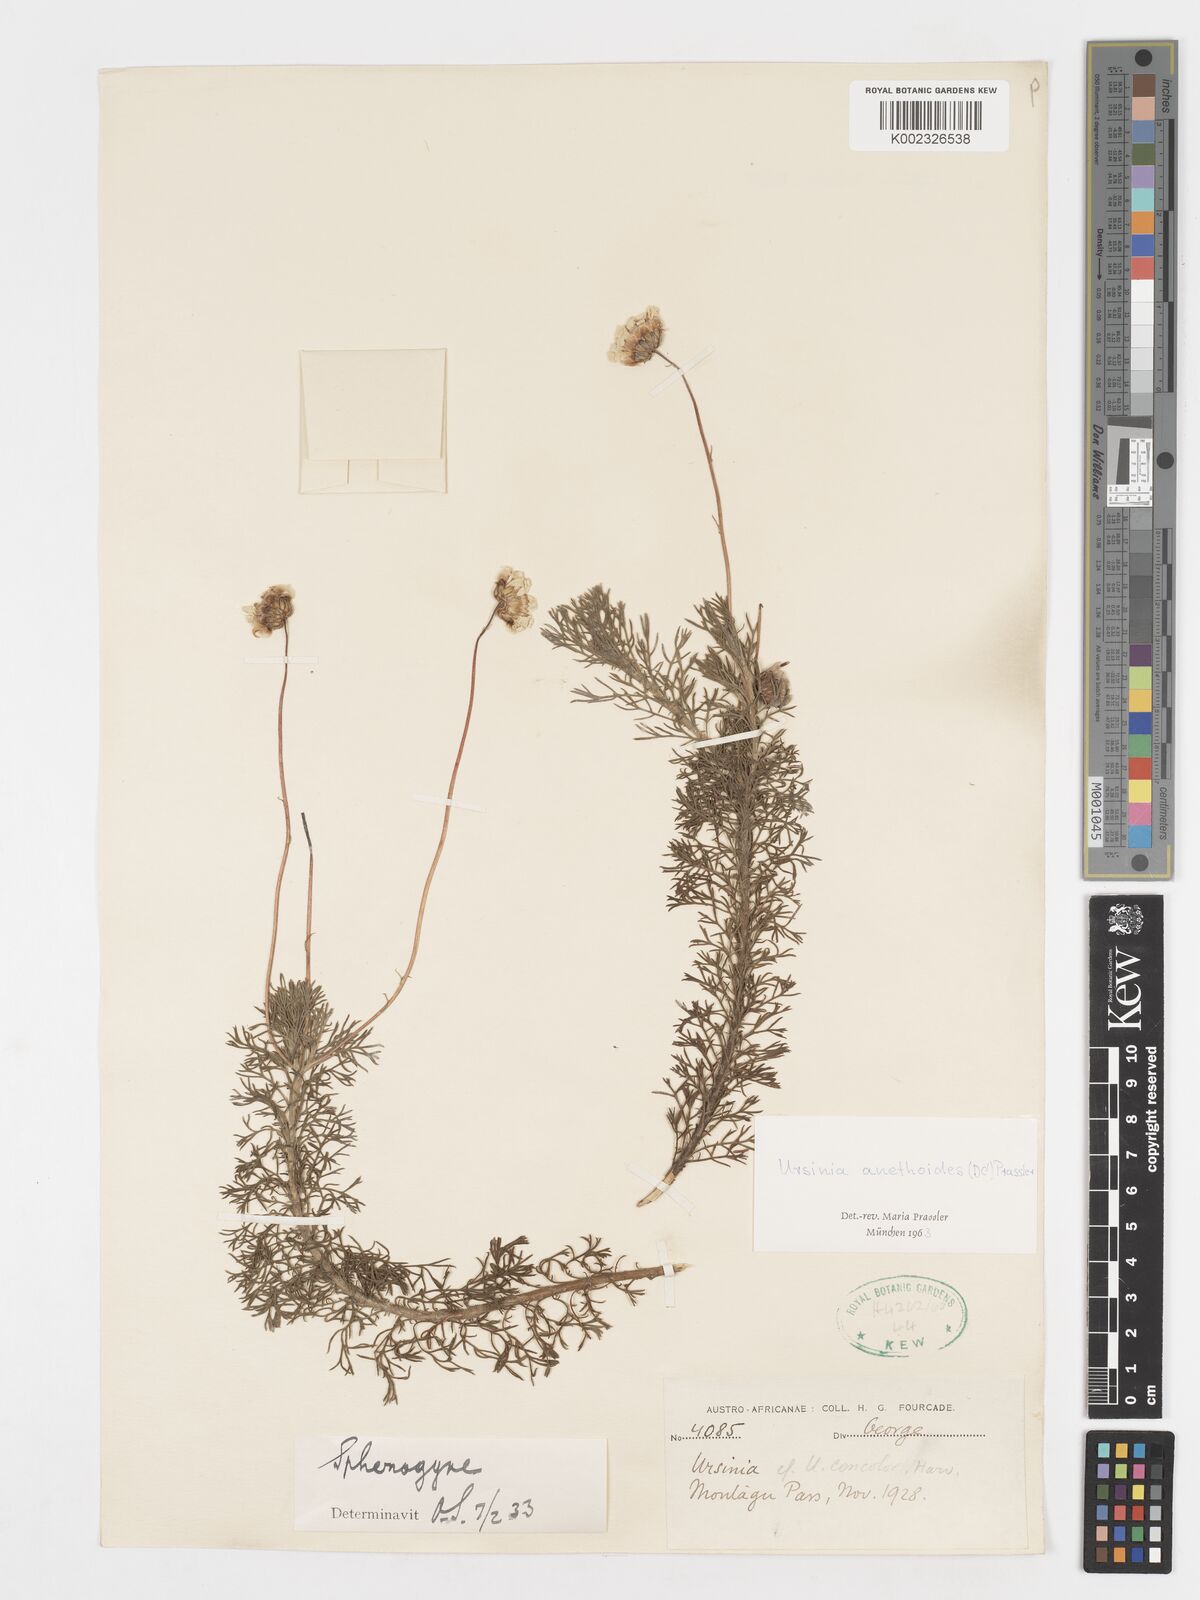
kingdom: Plantae
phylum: Tracheophyta
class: Magnoliopsida
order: Asterales
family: Asteraceae
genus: Ursinia
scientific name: Ursinia anethoides
